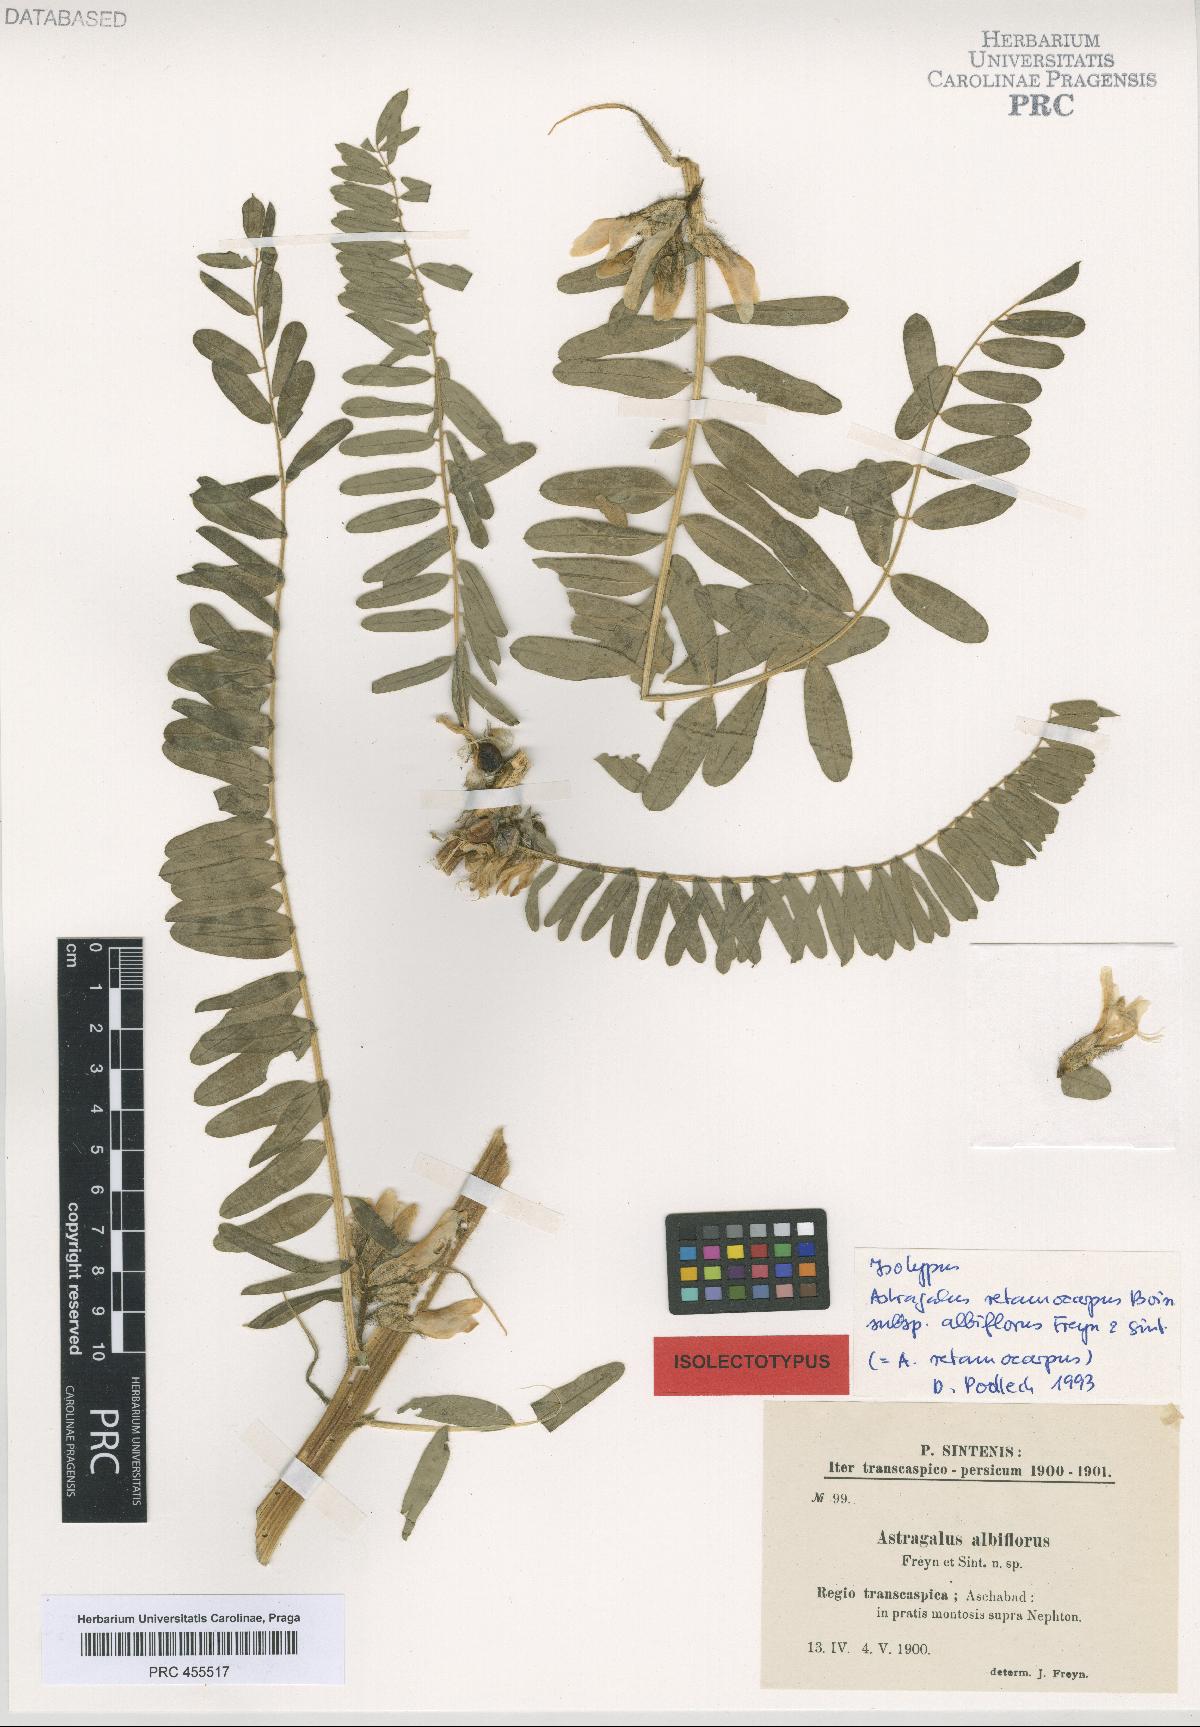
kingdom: Plantae
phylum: Tracheophyta
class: Magnoliopsida
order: Fabales
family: Fabaceae
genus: Astragalus
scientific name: Astragalus retamocarpus
